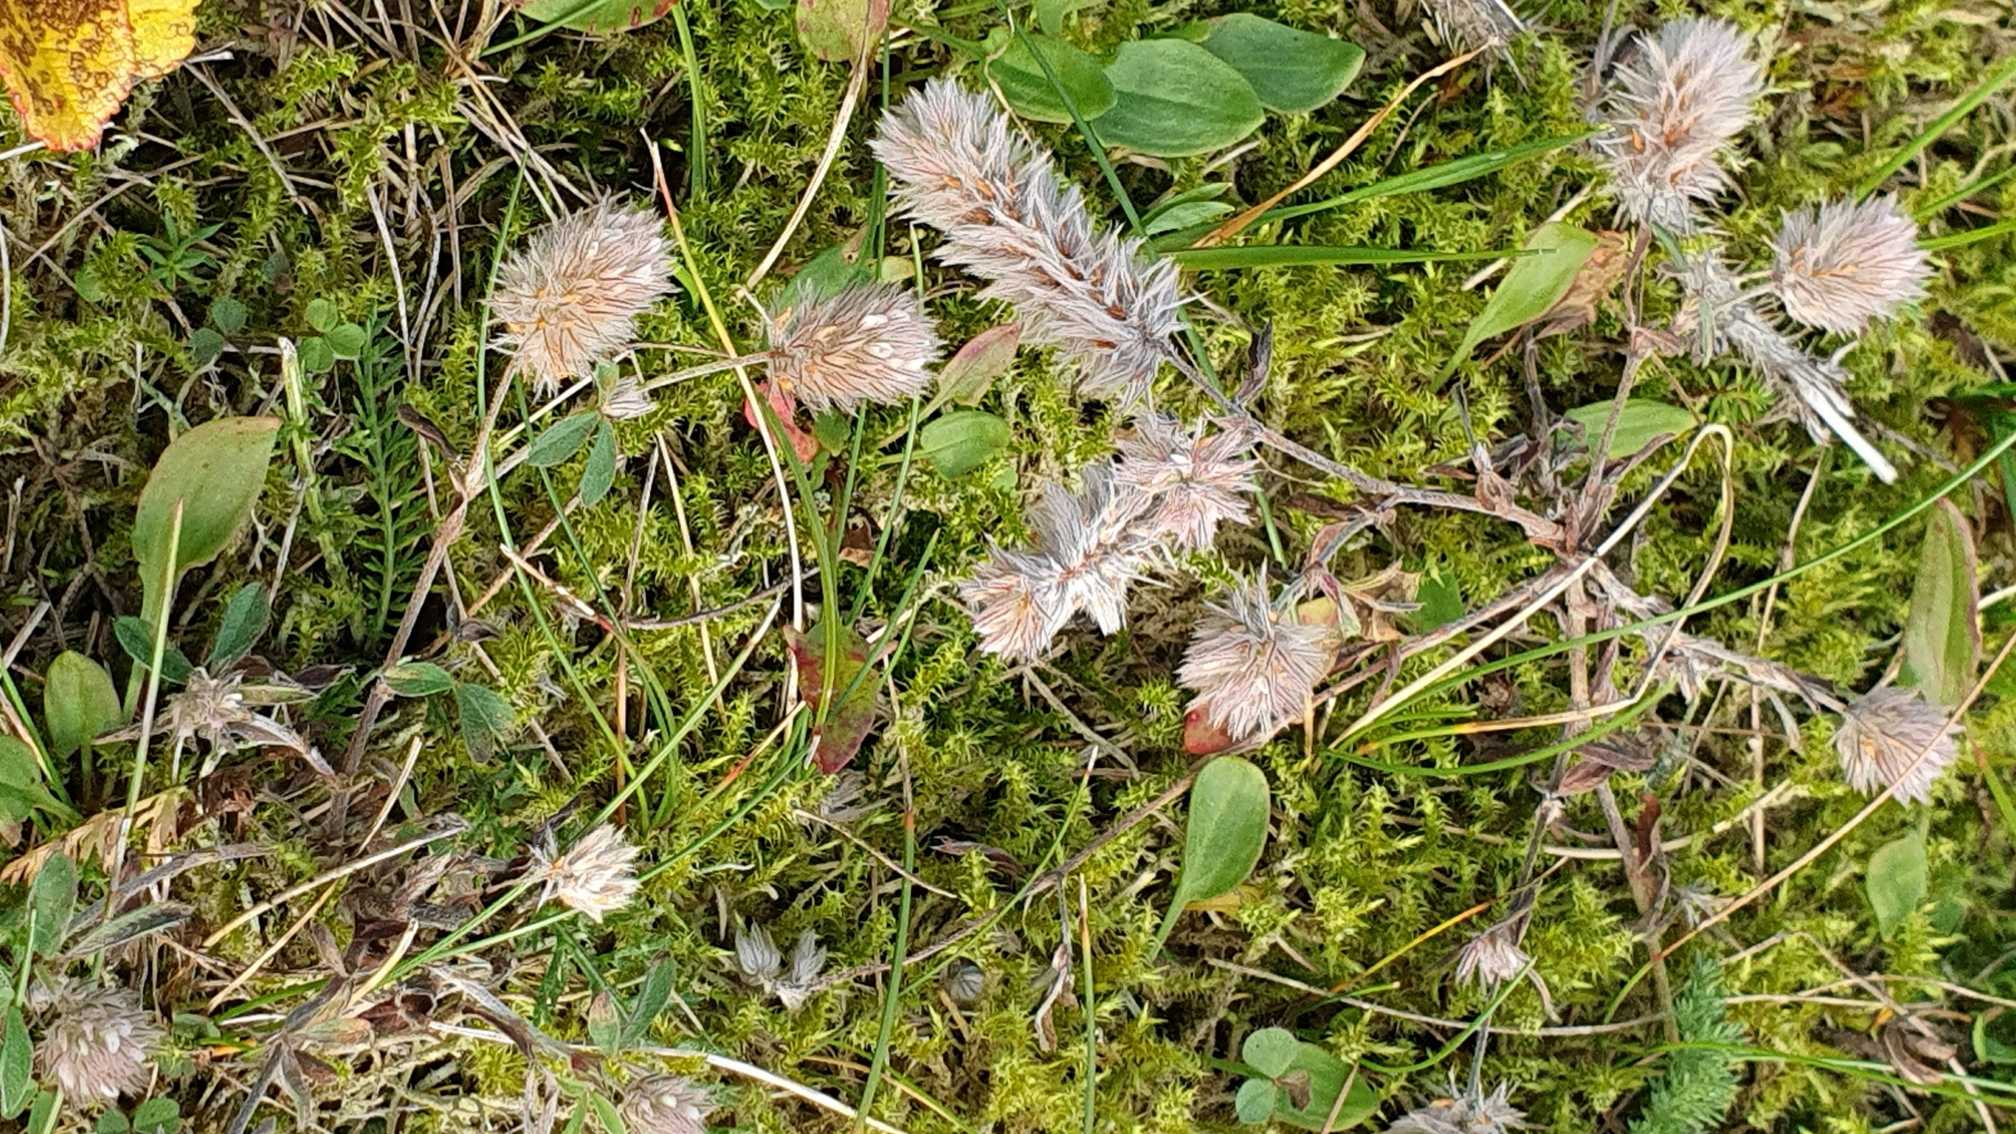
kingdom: Plantae
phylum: Tracheophyta
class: Magnoliopsida
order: Fabales
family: Fabaceae
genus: Trifolium
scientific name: Trifolium arvense
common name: Hare-kløver
